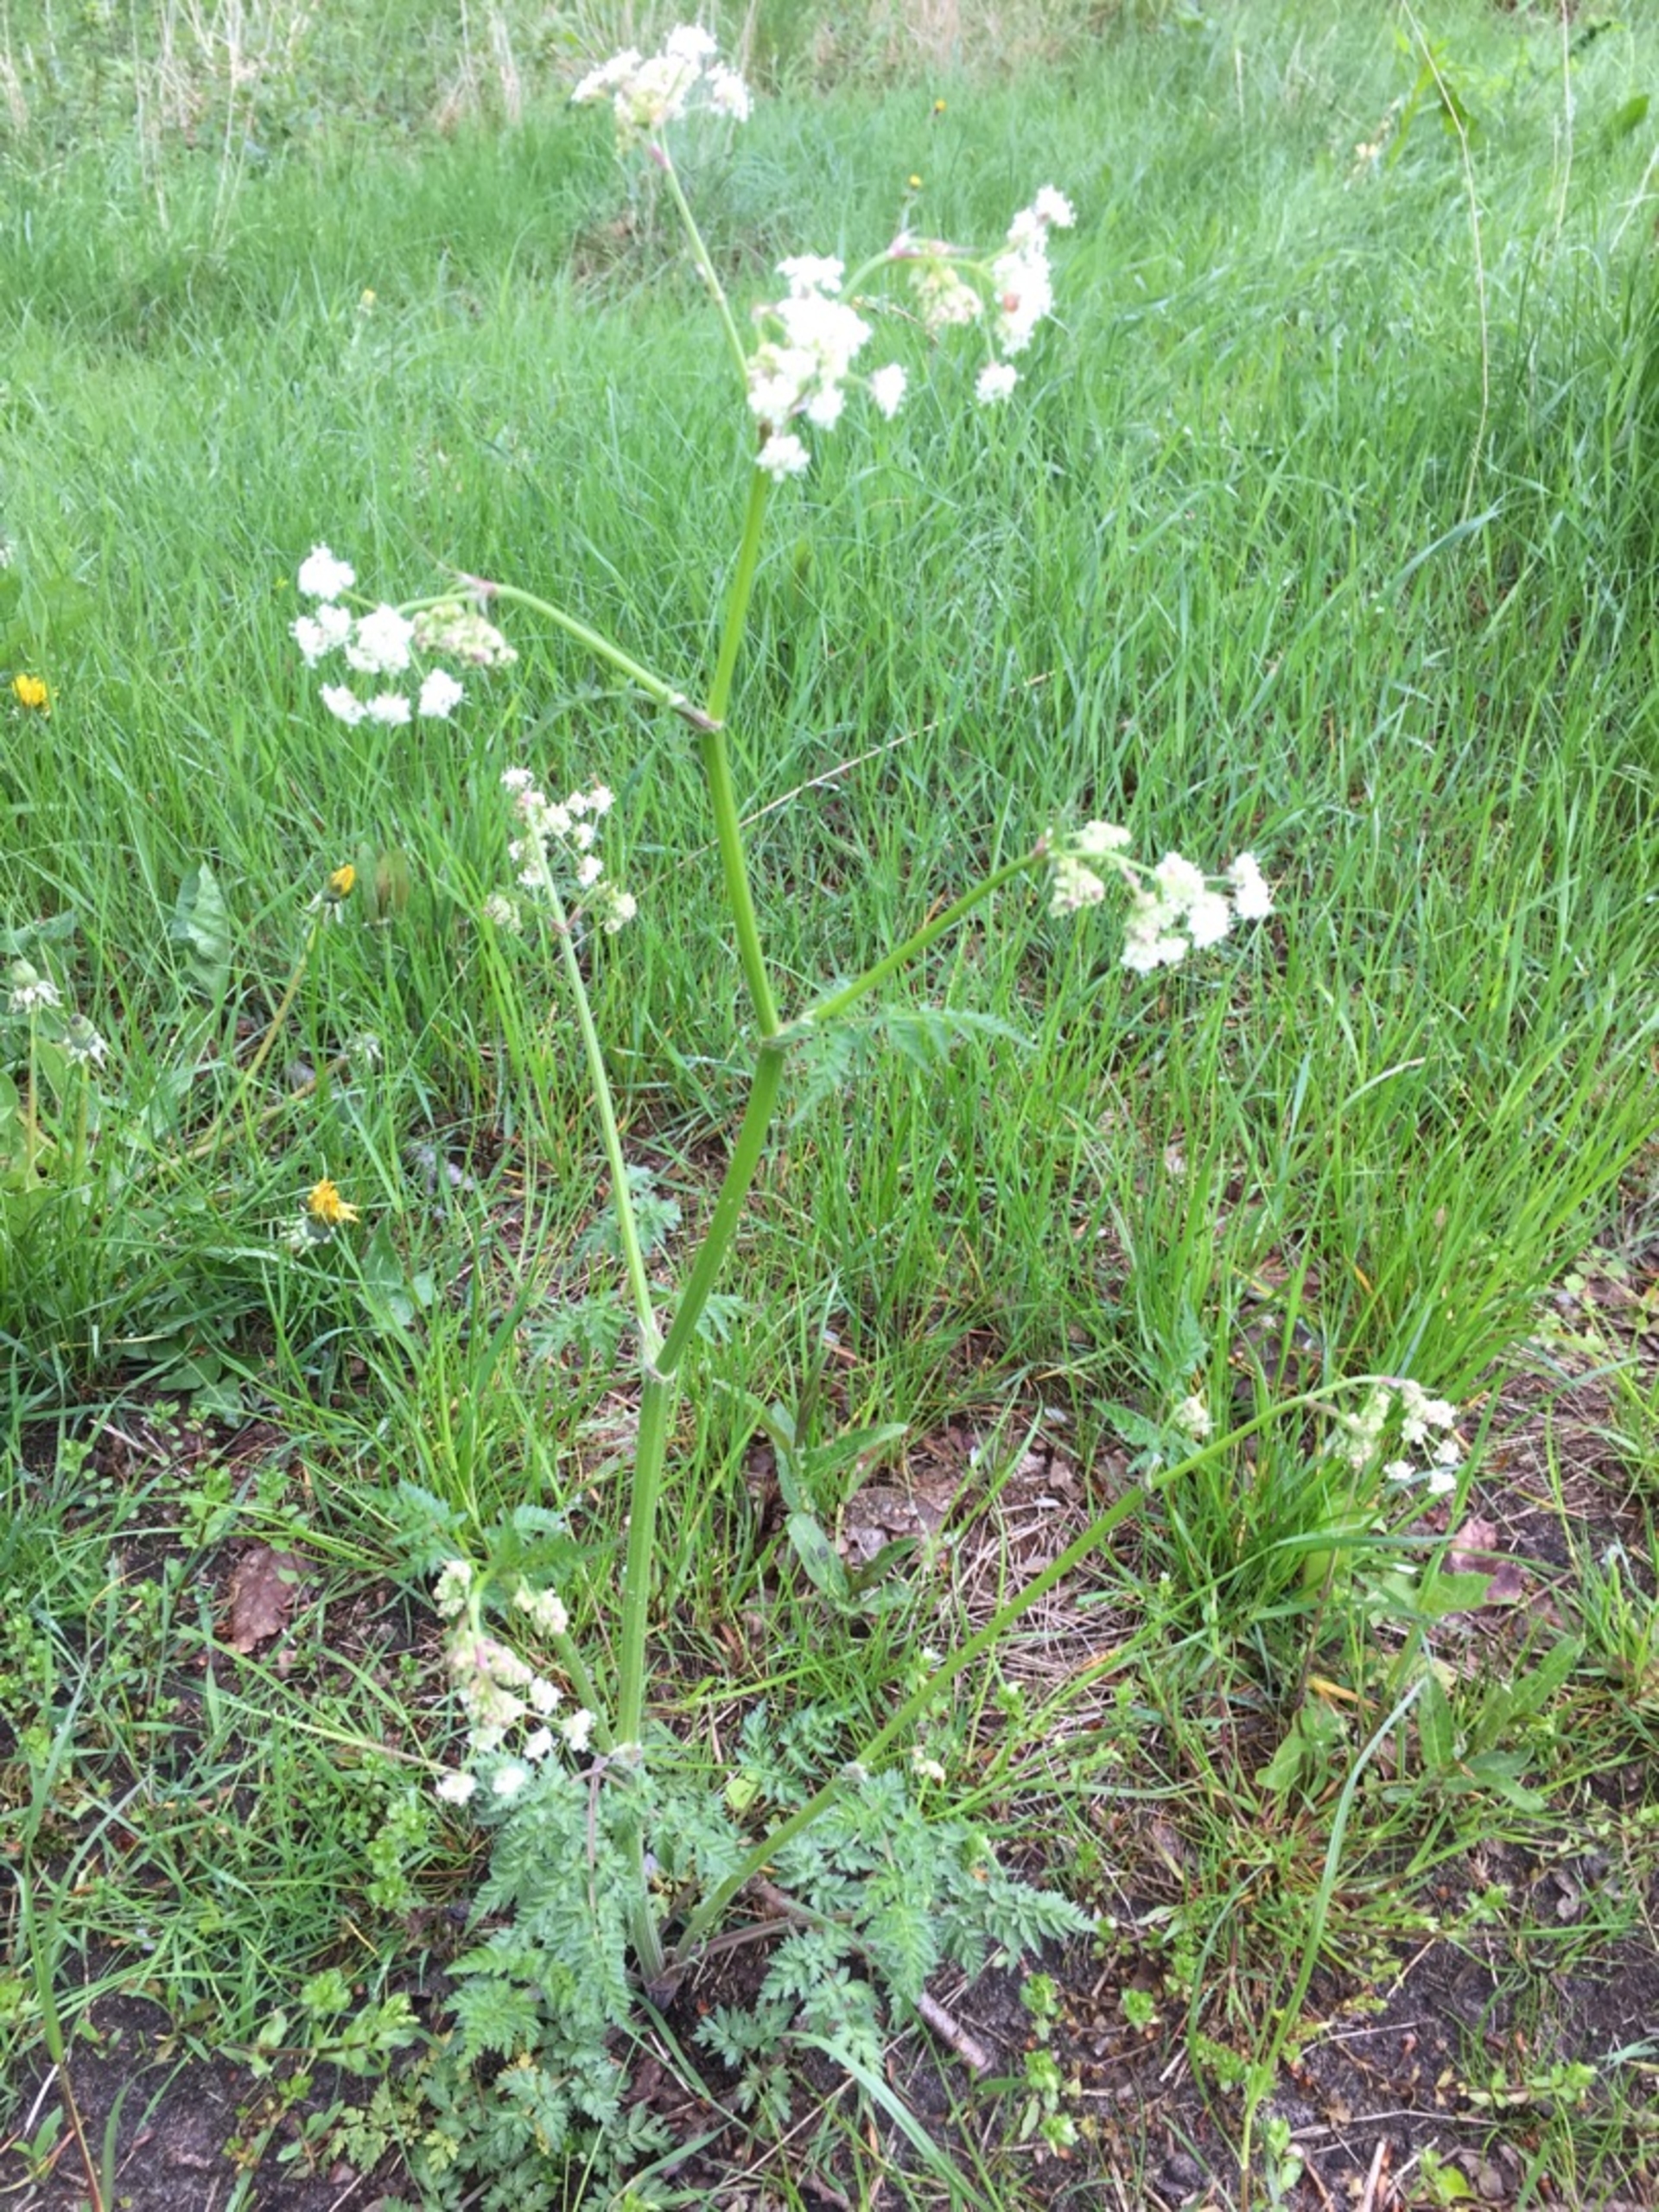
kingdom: Plantae
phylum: Tracheophyta
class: Magnoliopsida
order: Apiales
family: Apiaceae
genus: Anthriscus
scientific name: Anthriscus sylvestris
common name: Vild kørvel
